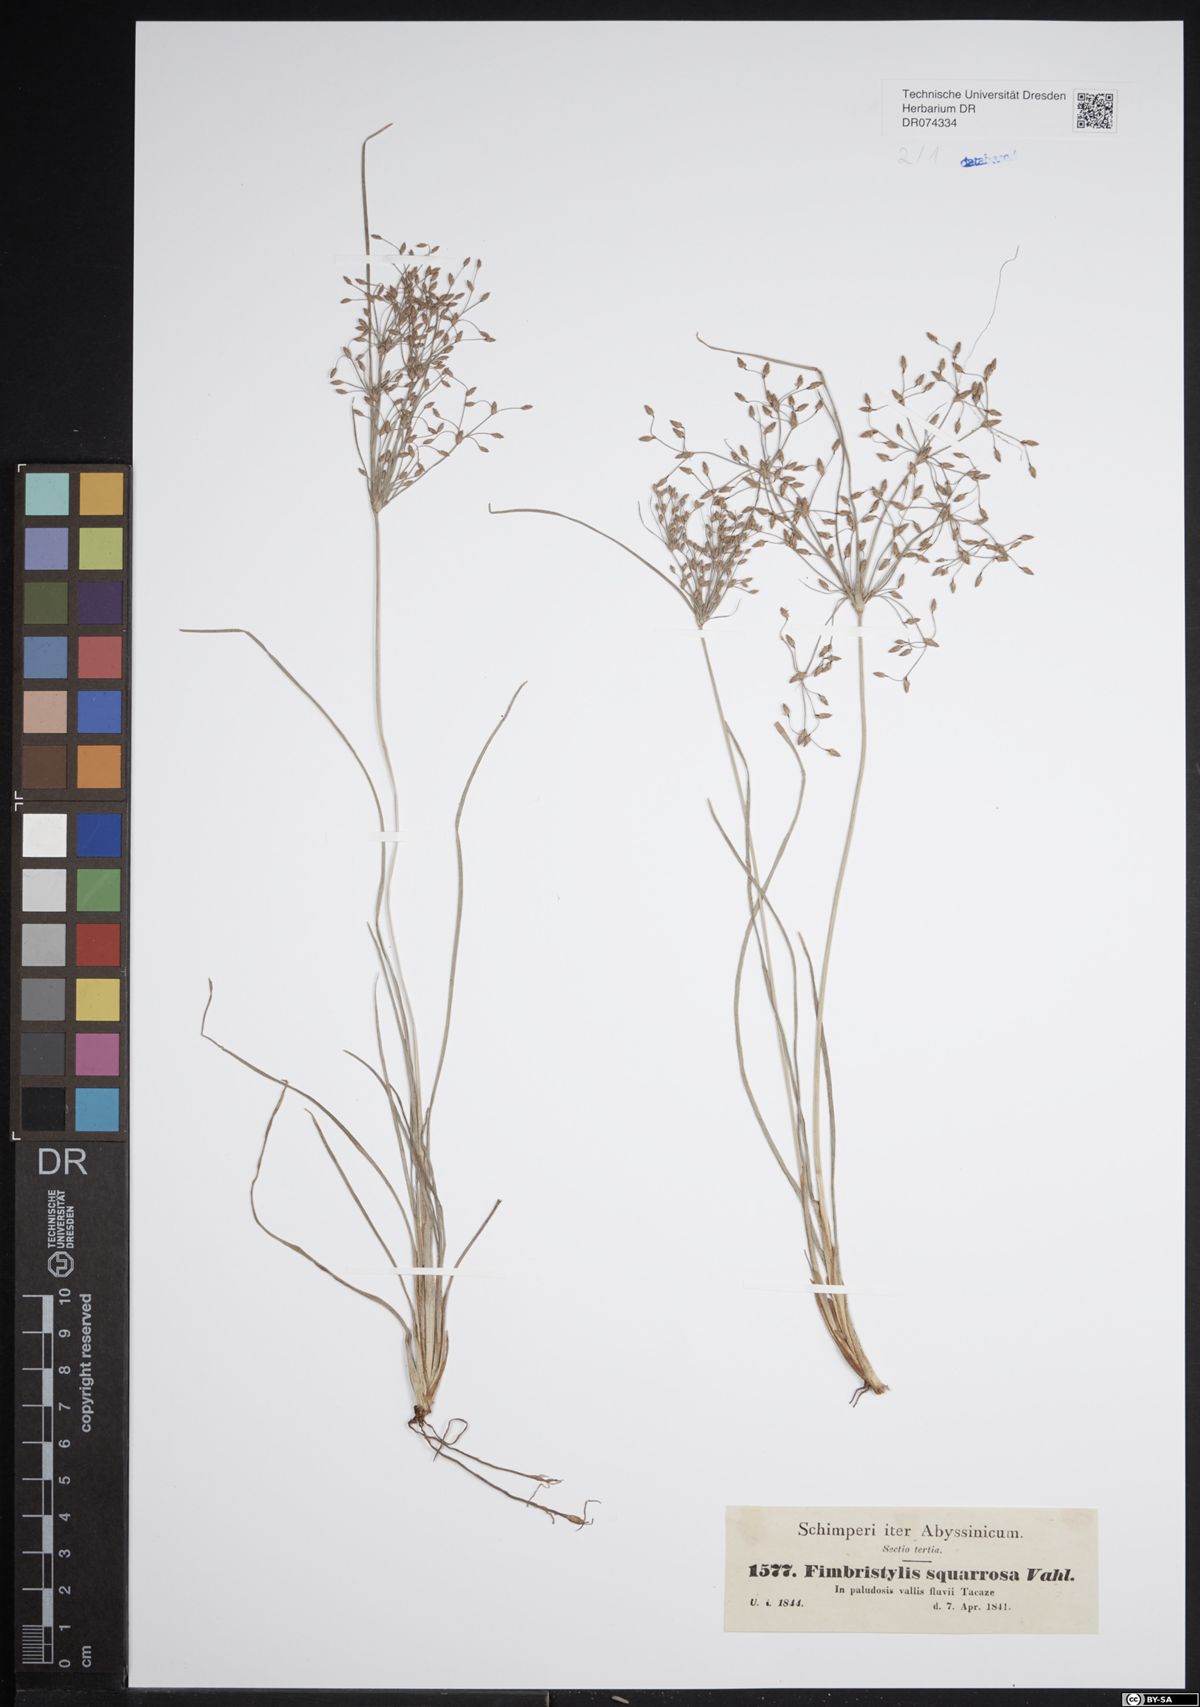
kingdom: Plantae
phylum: Tracheophyta
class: Liliopsida
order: Poales
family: Cyperaceae
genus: Fimbristylis
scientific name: Fimbristylis squarrosa
